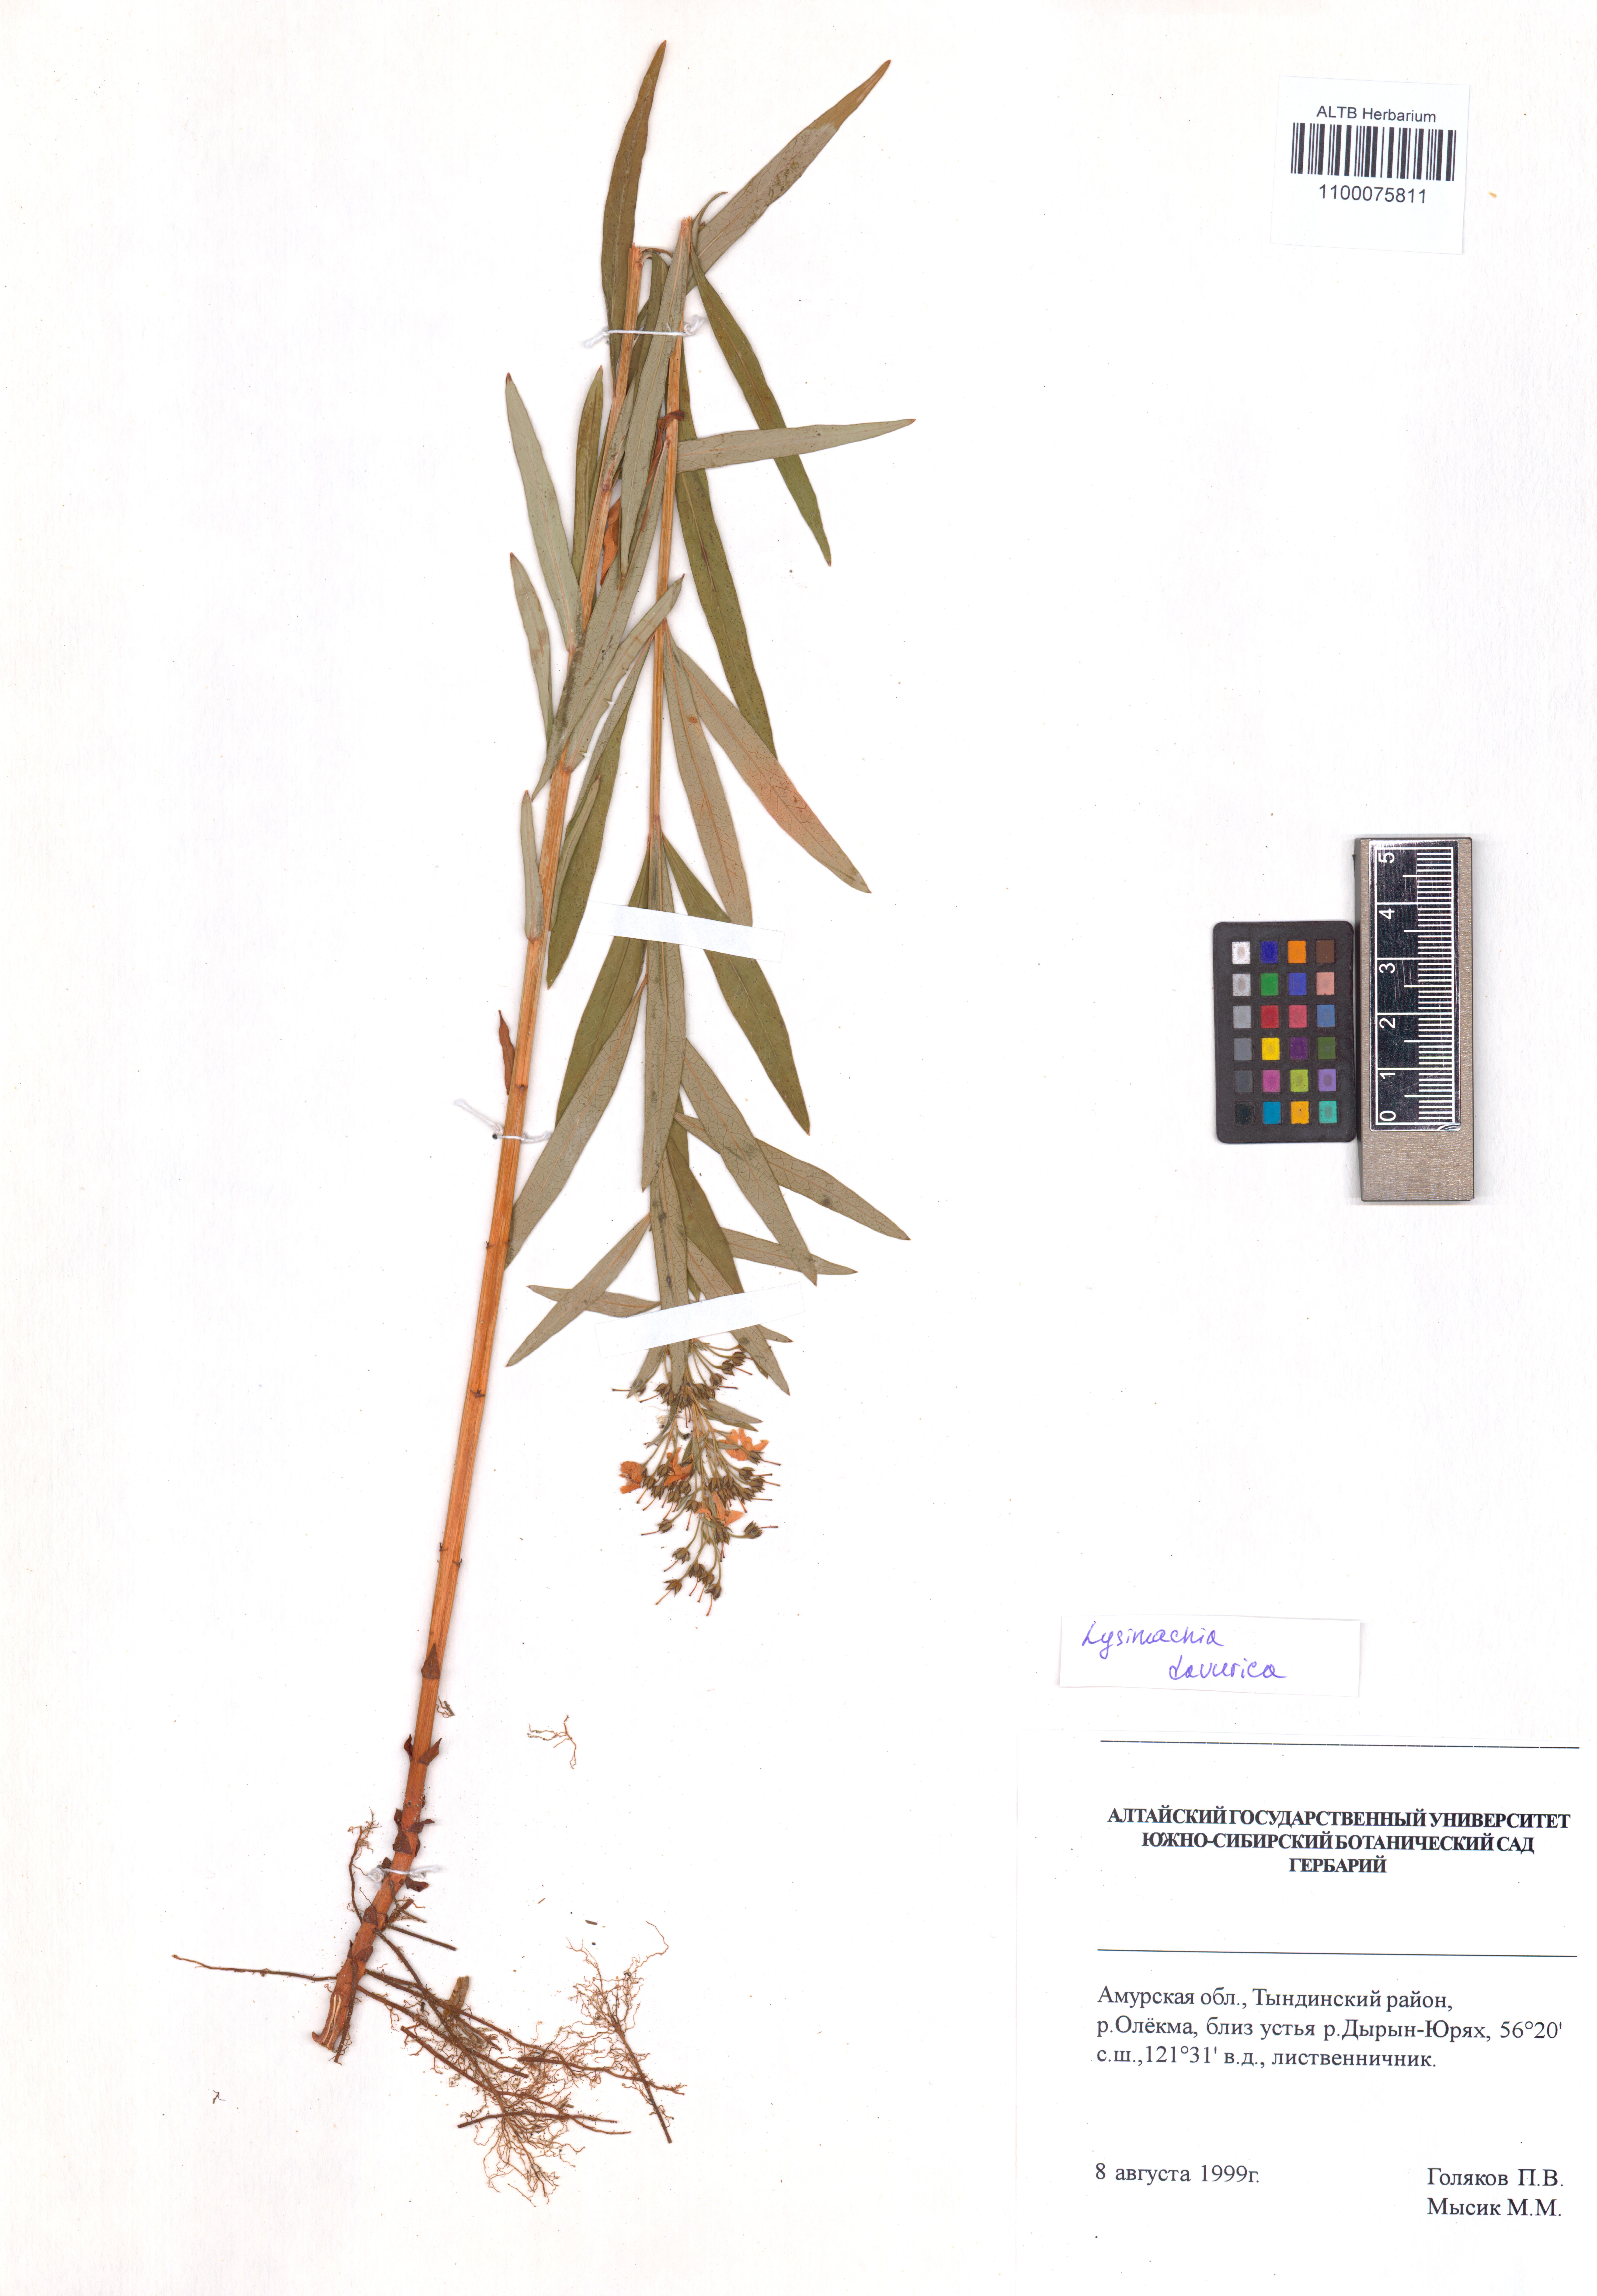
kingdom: Plantae
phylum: Tracheophyta
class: Magnoliopsida
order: Ericales
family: Primulaceae
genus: Lysimachia
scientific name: Lysimachia davurica
